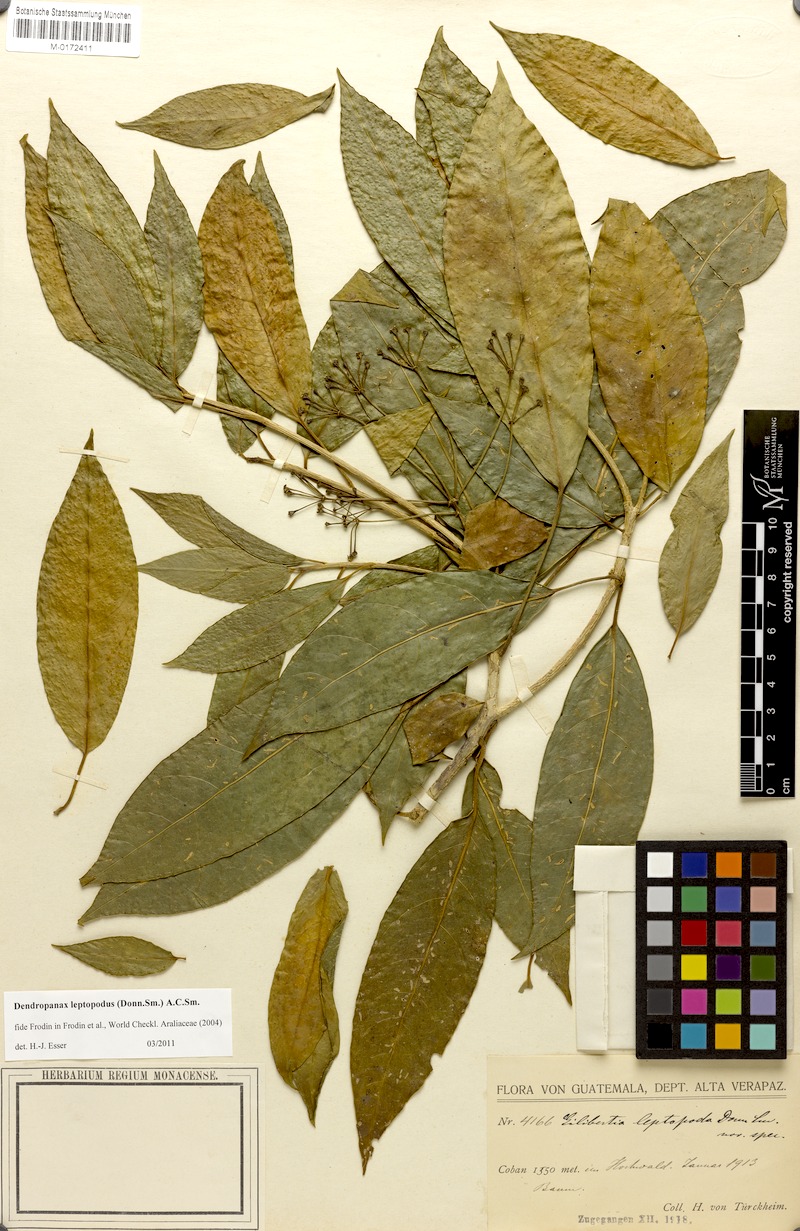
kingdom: Plantae
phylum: Tracheophyta
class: Magnoliopsida
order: Apiales
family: Araliaceae
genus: Dendropanax
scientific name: Dendropanax leptopodus
